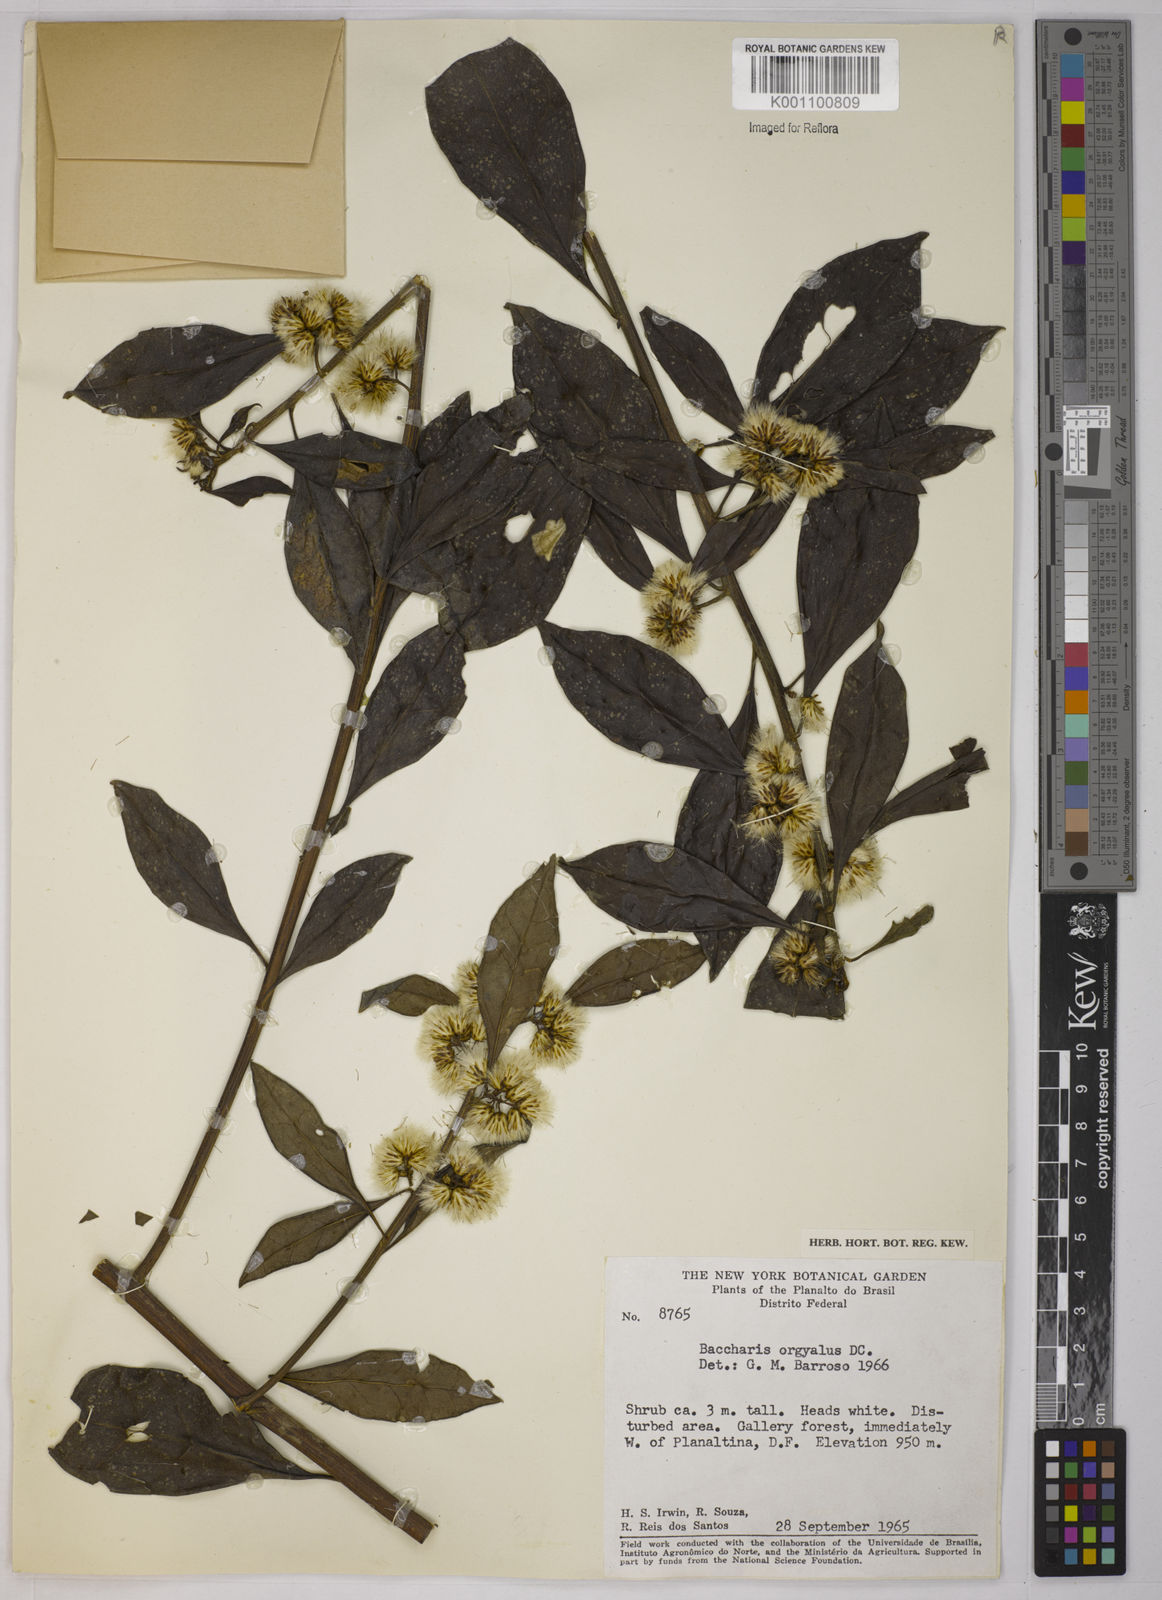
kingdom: Plantae
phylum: Tracheophyta
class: Magnoliopsida
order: Asterales
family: Asteraceae
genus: Baccharis
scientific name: Baccharis dentata
